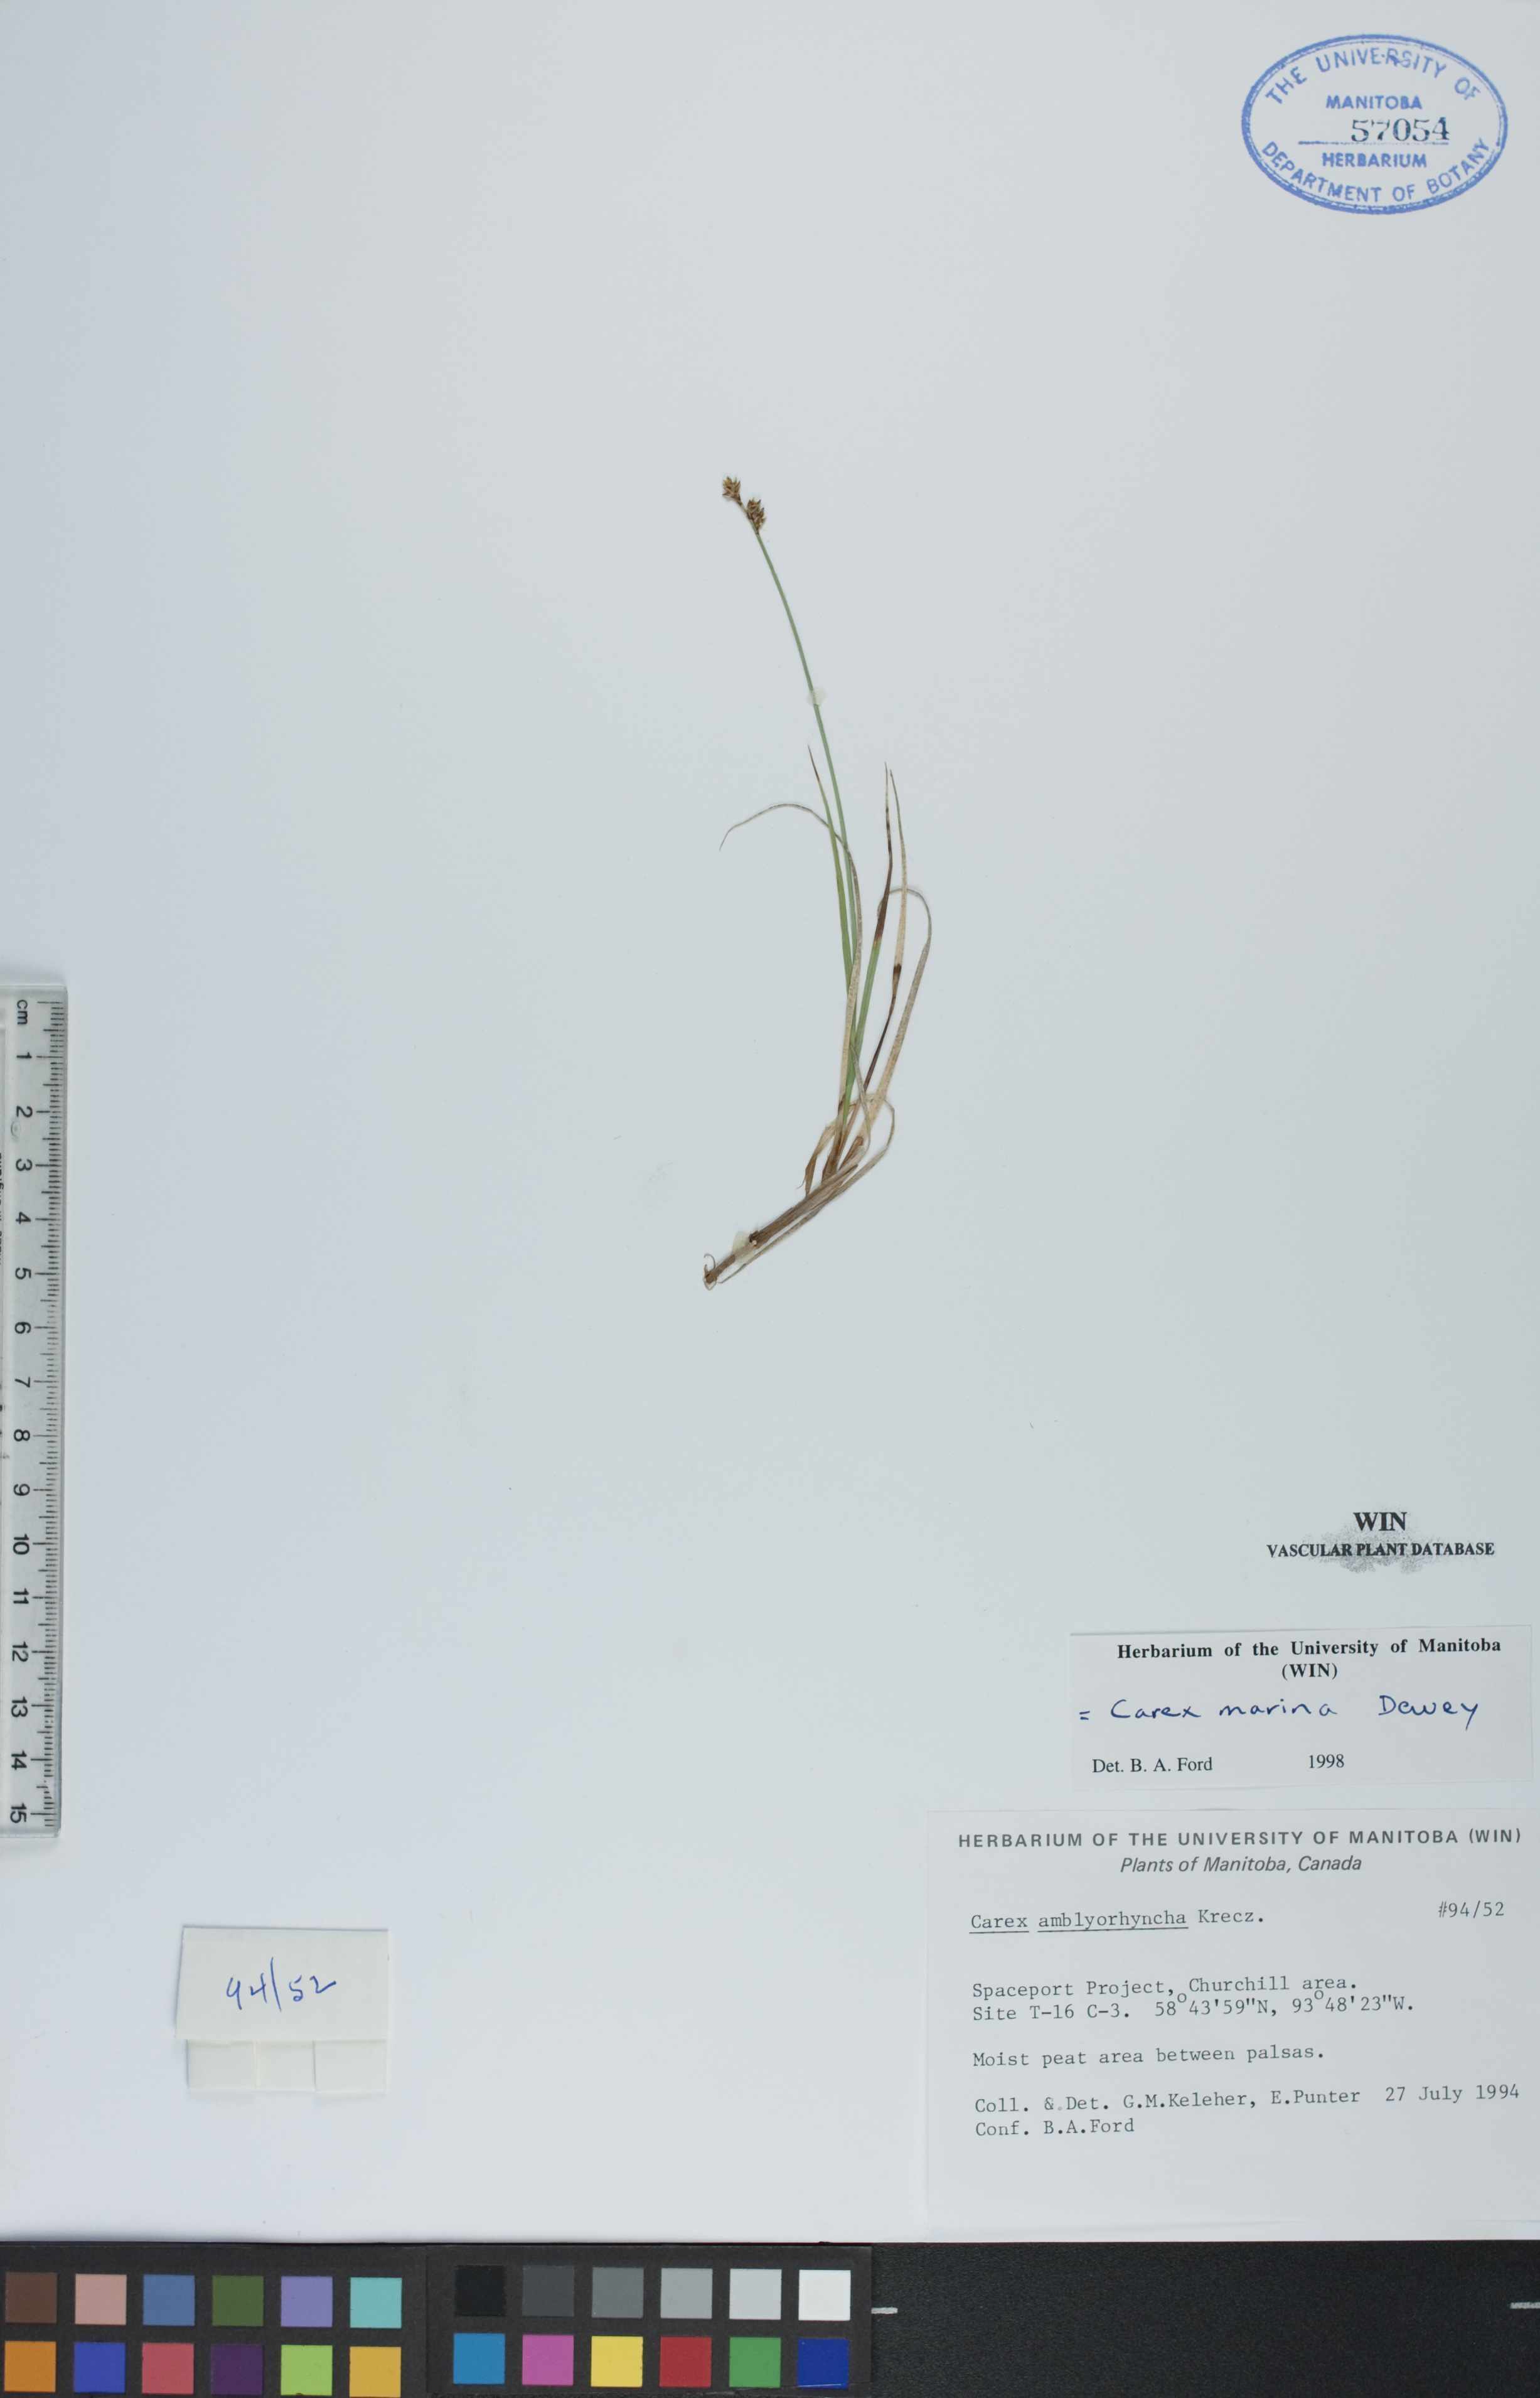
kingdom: Plantae
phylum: Tracheophyta
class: Liliopsida
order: Poales
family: Cyperaceae
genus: Carex
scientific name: Carex marina
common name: Seashore sedge
